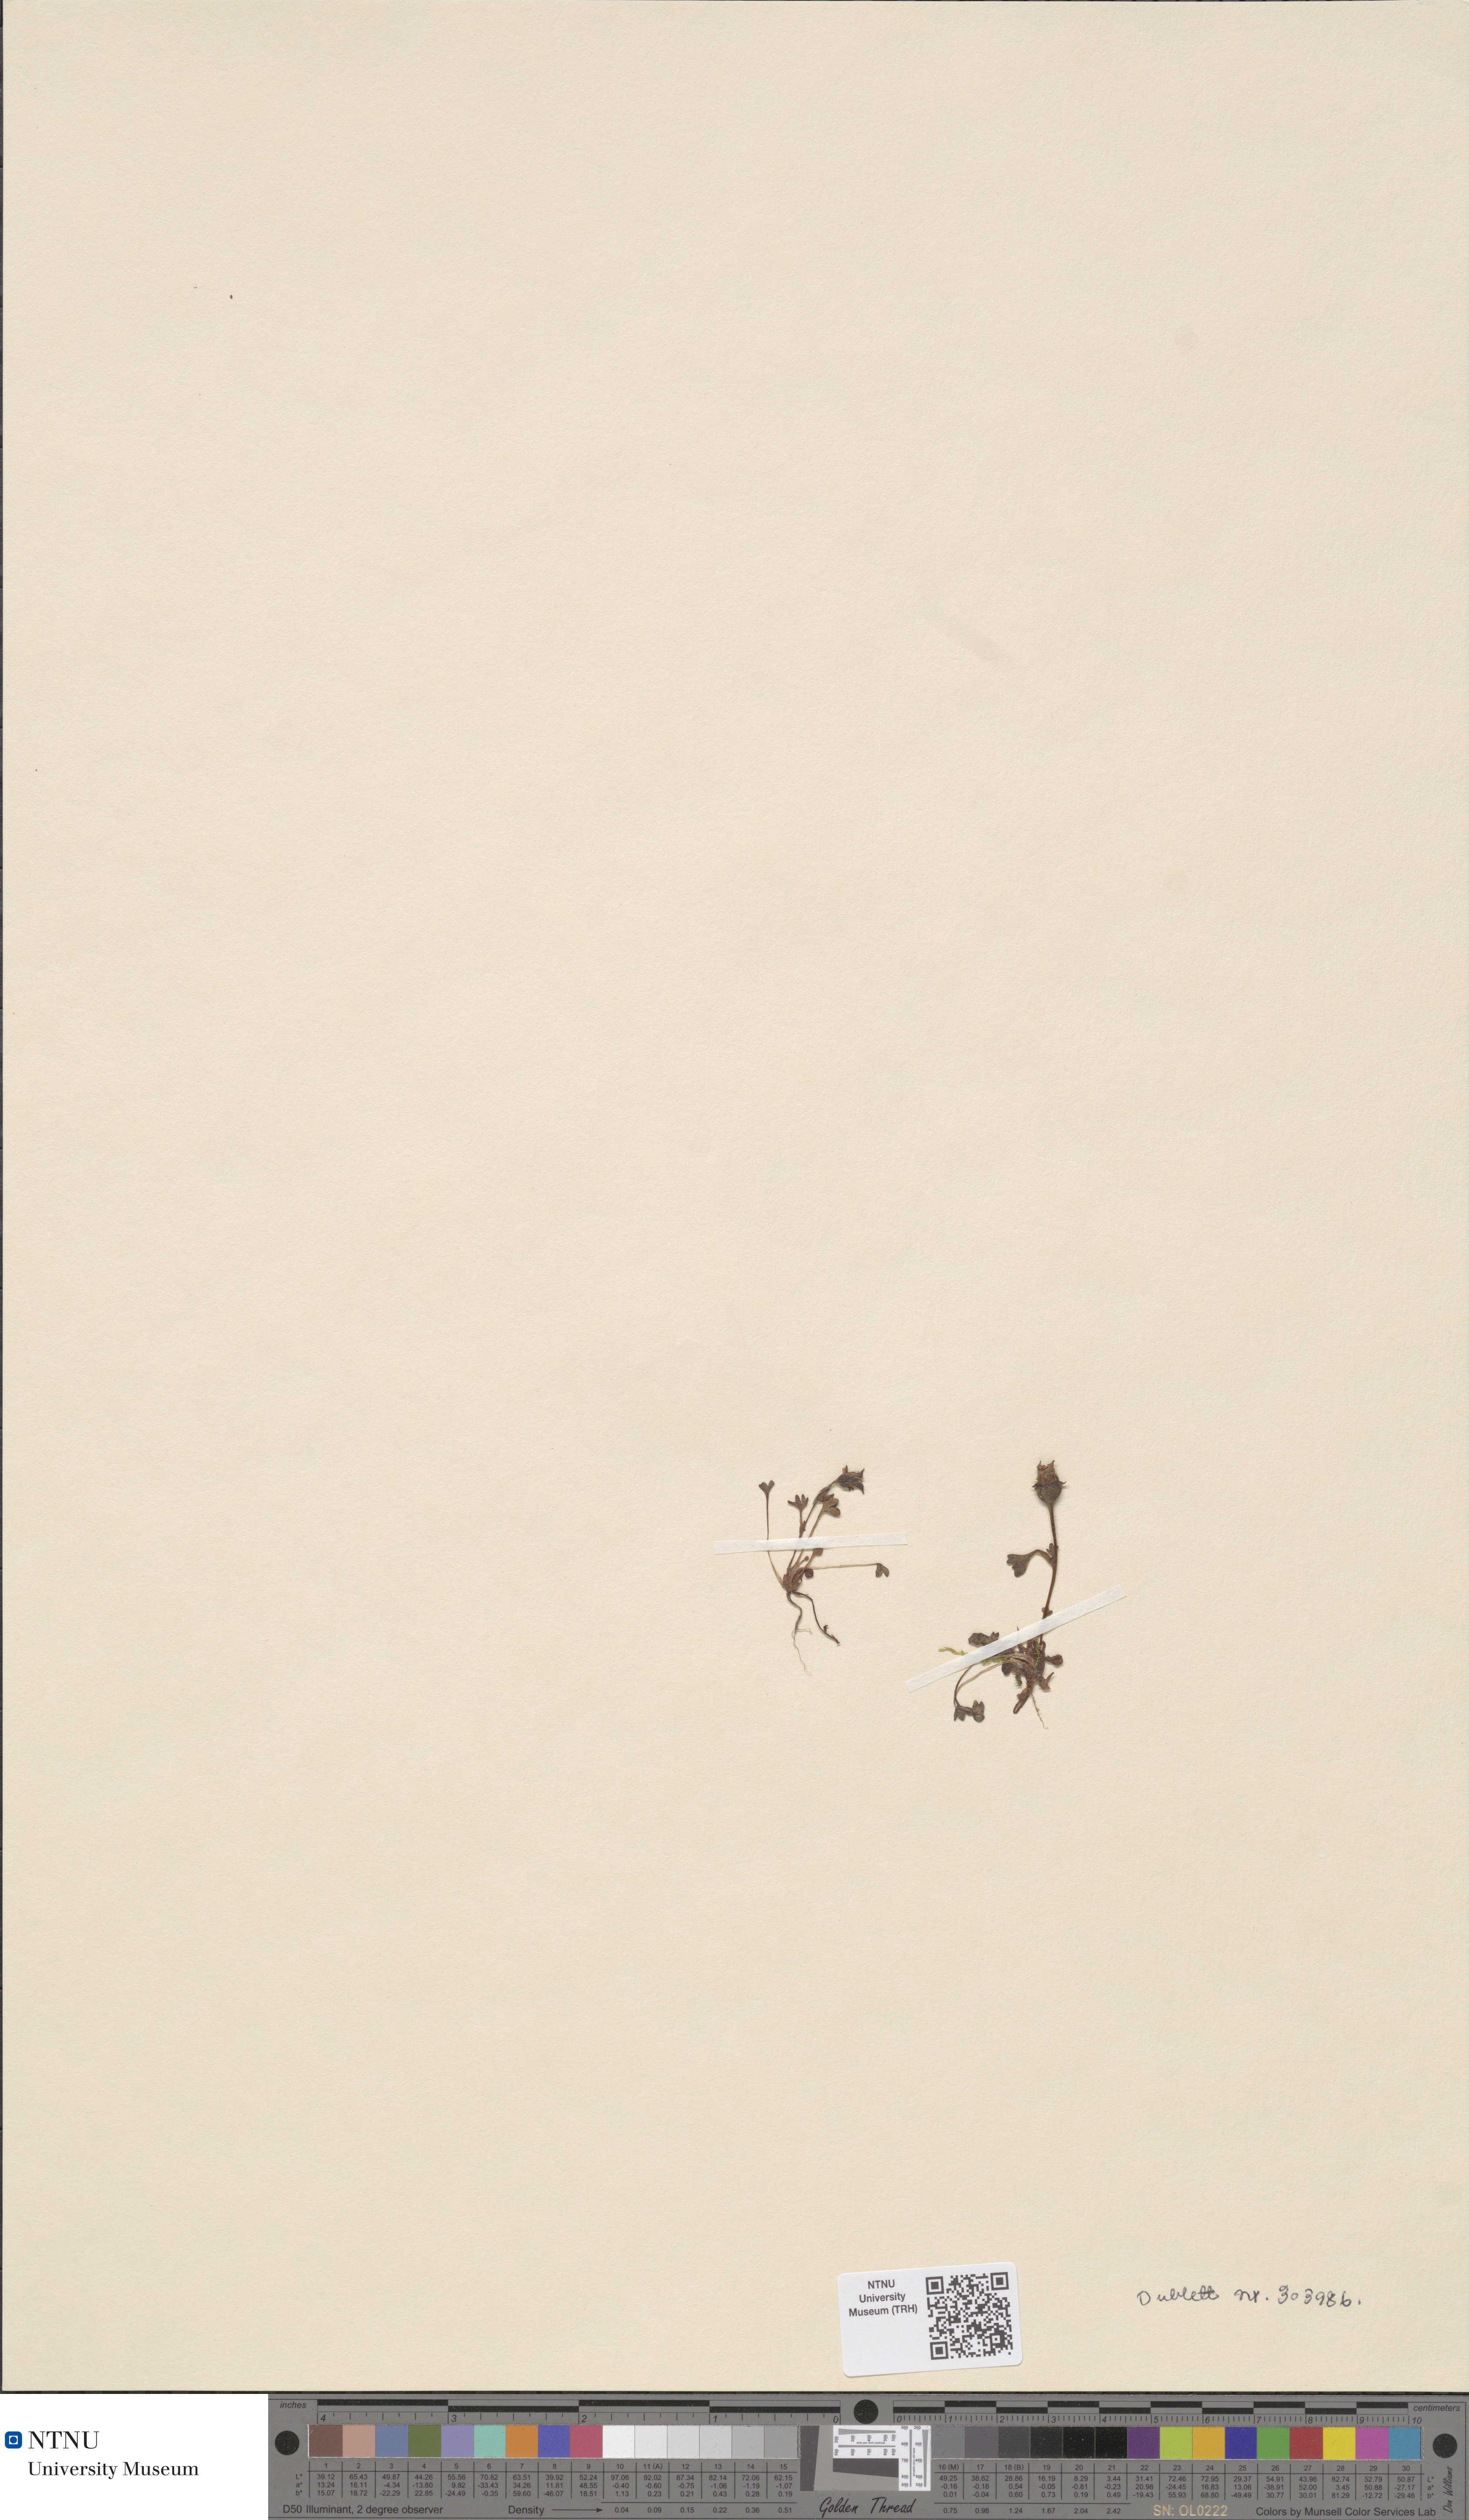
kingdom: Plantae
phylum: Tracheophyta
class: Magnoliopsida
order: Saxifragales
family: Saxifragaceae
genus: Saxifraga
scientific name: Saxifraga rivularis
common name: Highland saxifrage
